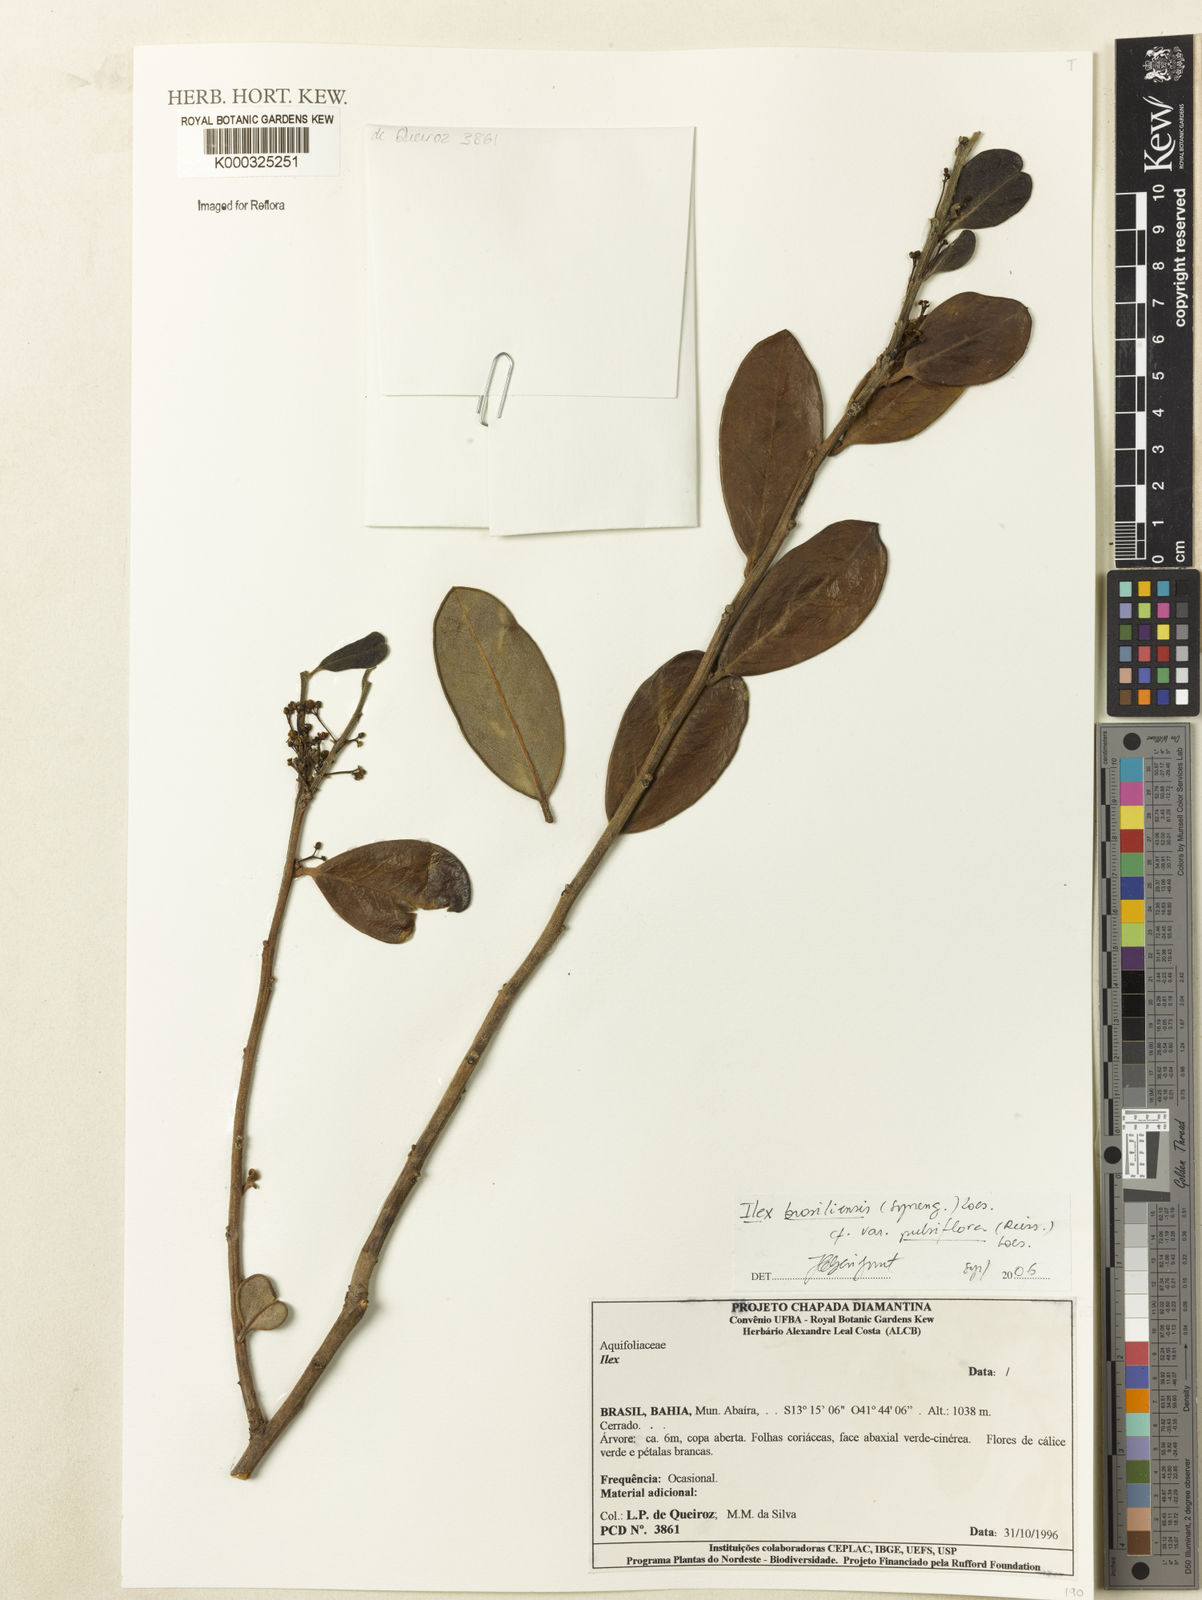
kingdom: Plantae
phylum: Tracheophyta
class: Magnoliopsida
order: Aquifoliales
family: Aquifoliaceae
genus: Ilex
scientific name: Ilex brasiliensis
